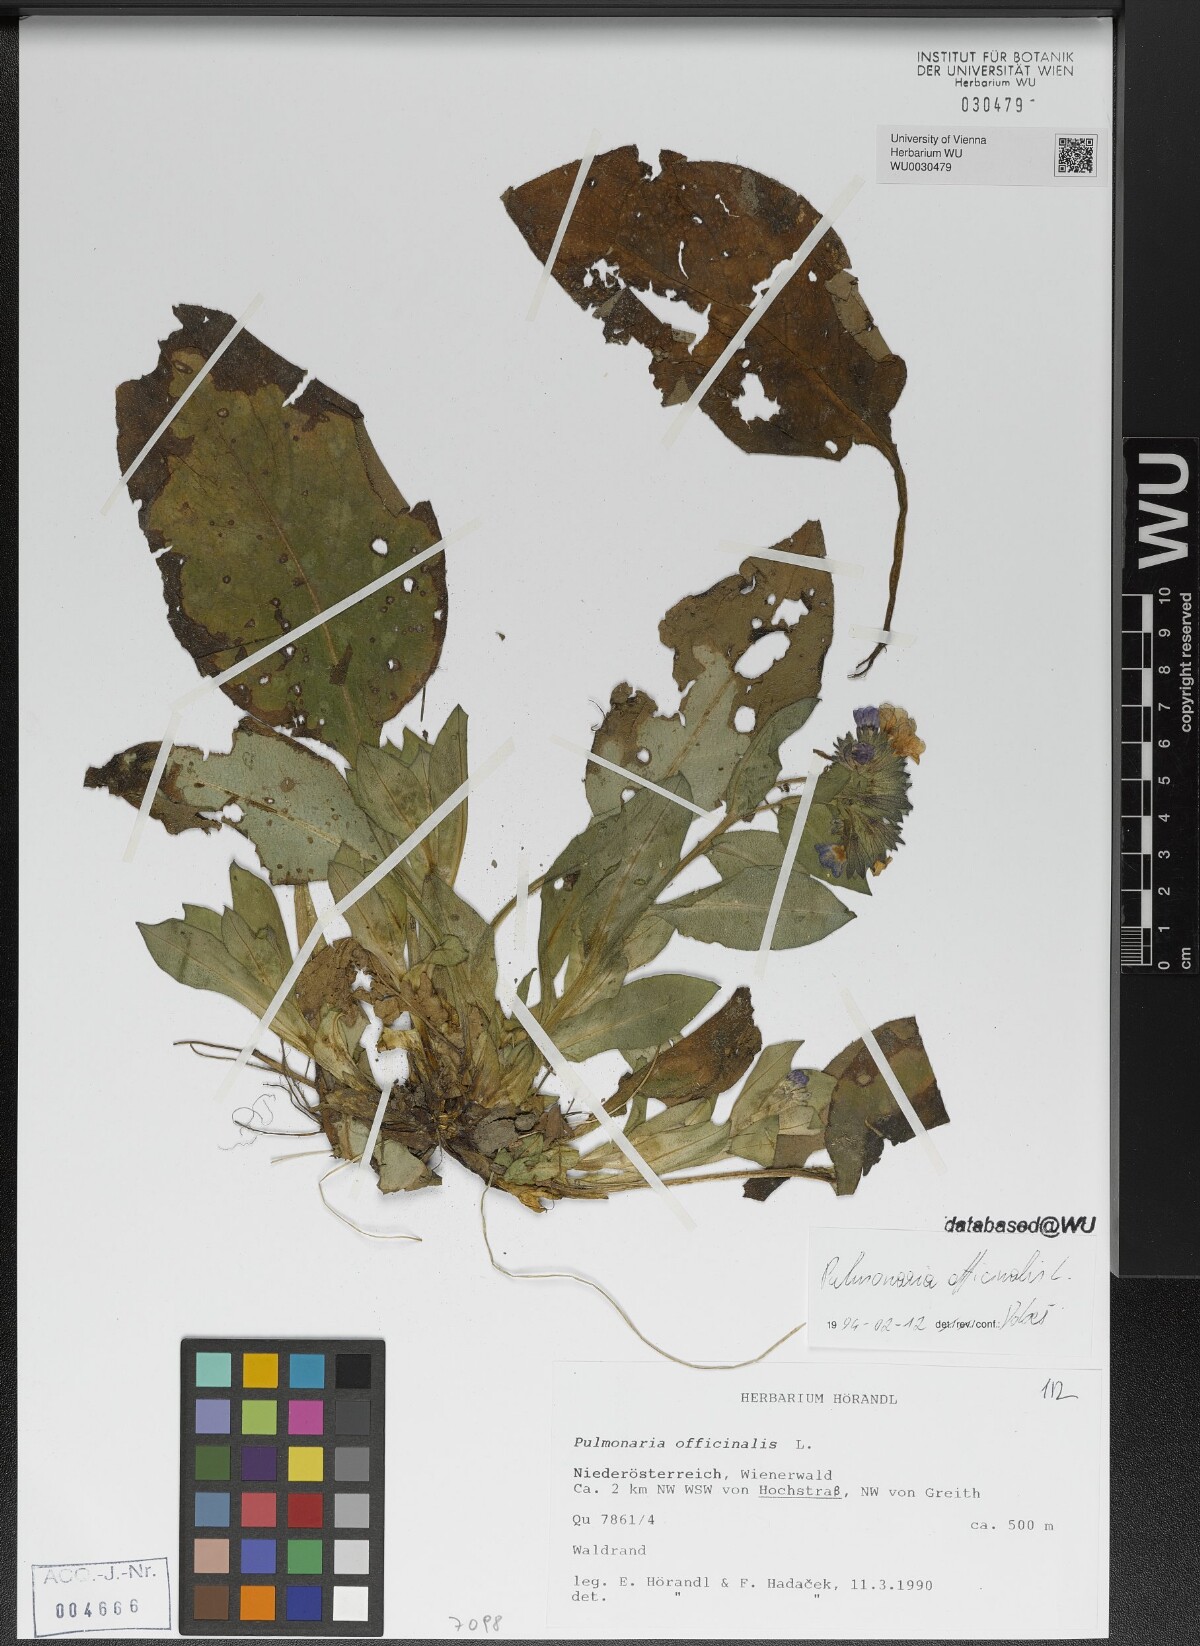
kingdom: Plantae
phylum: Tracheophyta
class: Magnoliopsida
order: Boraginales
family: Boraginaceae
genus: Pulmonaria
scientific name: Pulmonaria officinalis
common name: Lungwort
